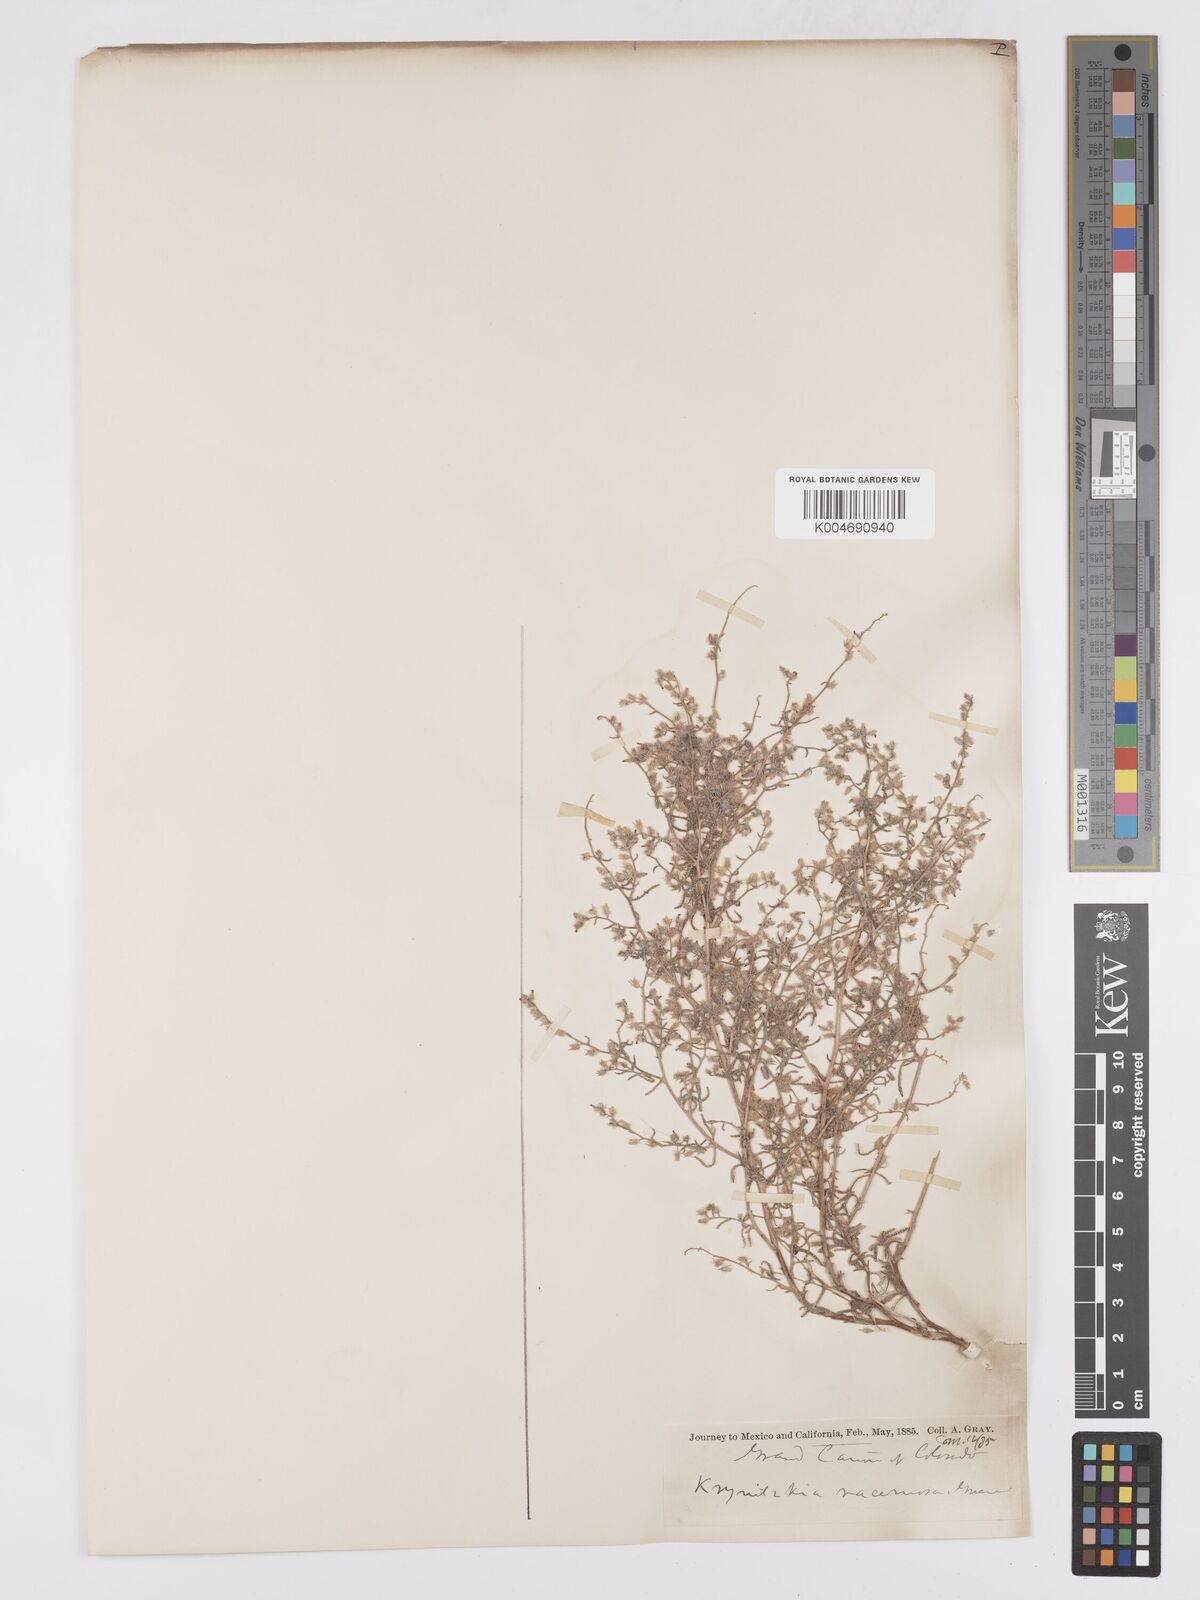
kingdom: Plantae
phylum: Tracheophyta
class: Magnoliopsida
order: Boraginales
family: Boraginaceae
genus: Johnstonella
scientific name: Johnstonella racemosa
